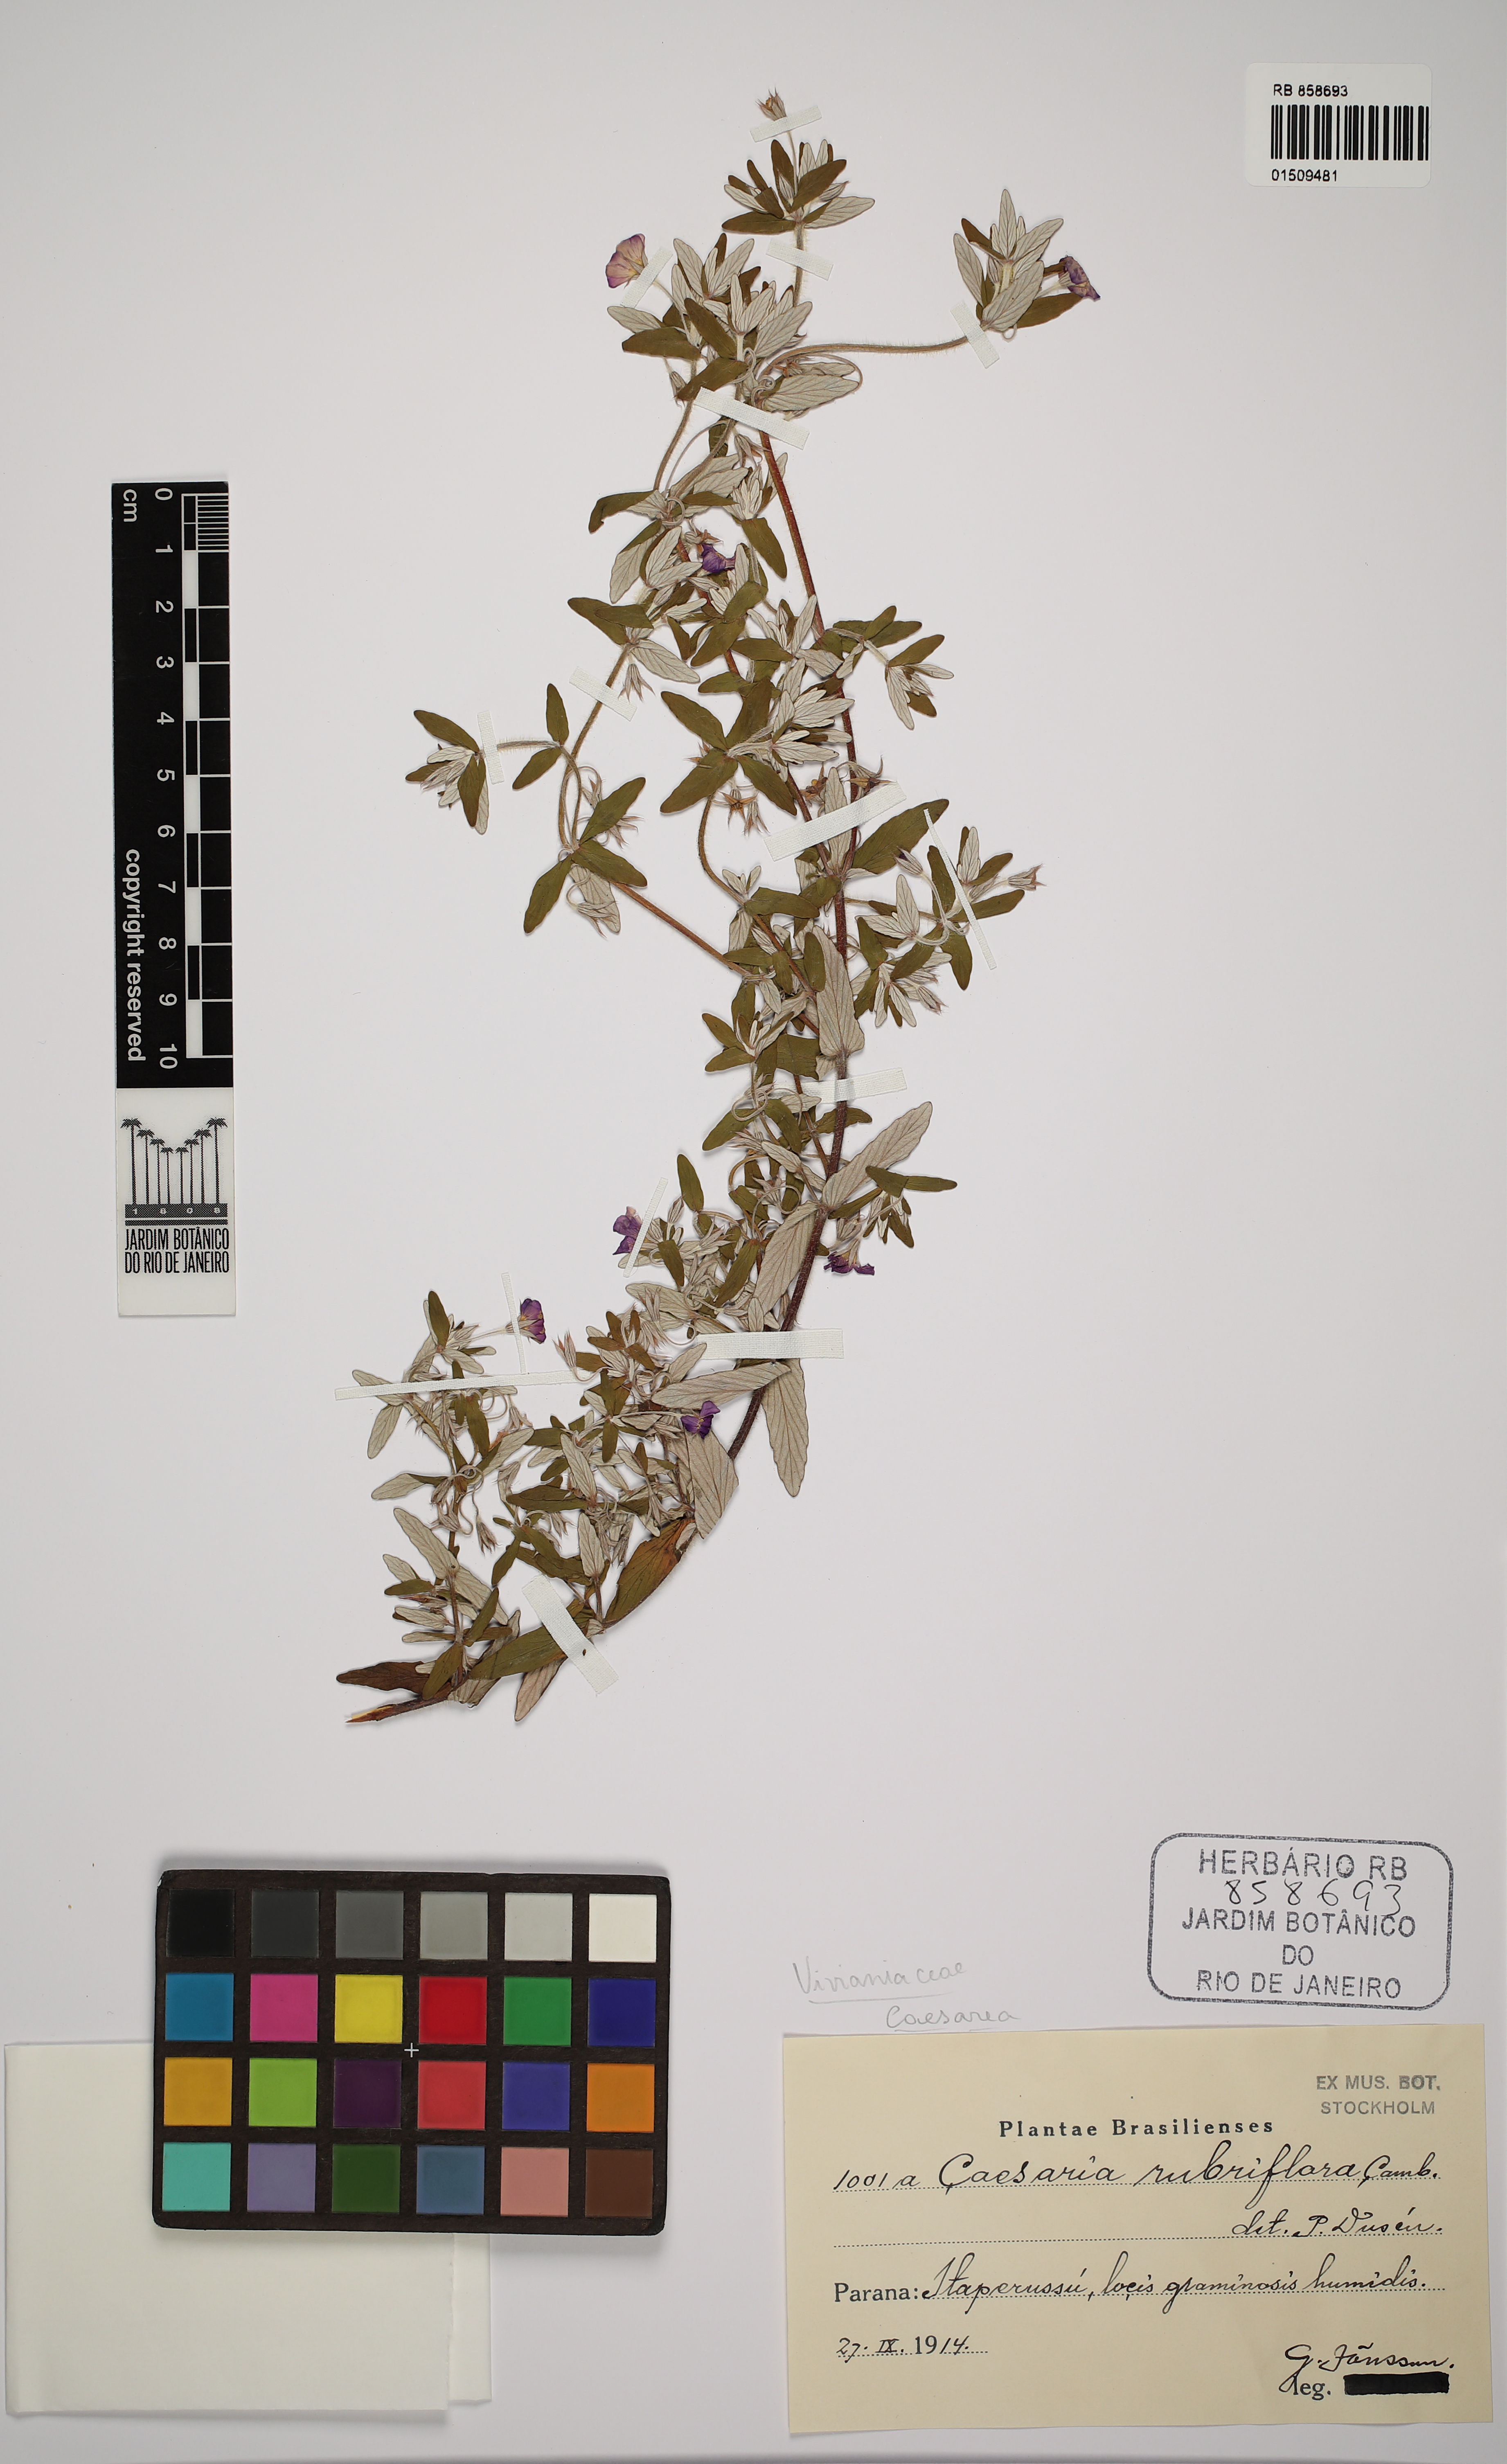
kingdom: Plantae
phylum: Tracheophyta
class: Magnoliopsida
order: Geraniales
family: Vivianiaceae
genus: Viviania
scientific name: Viviania albiflora
